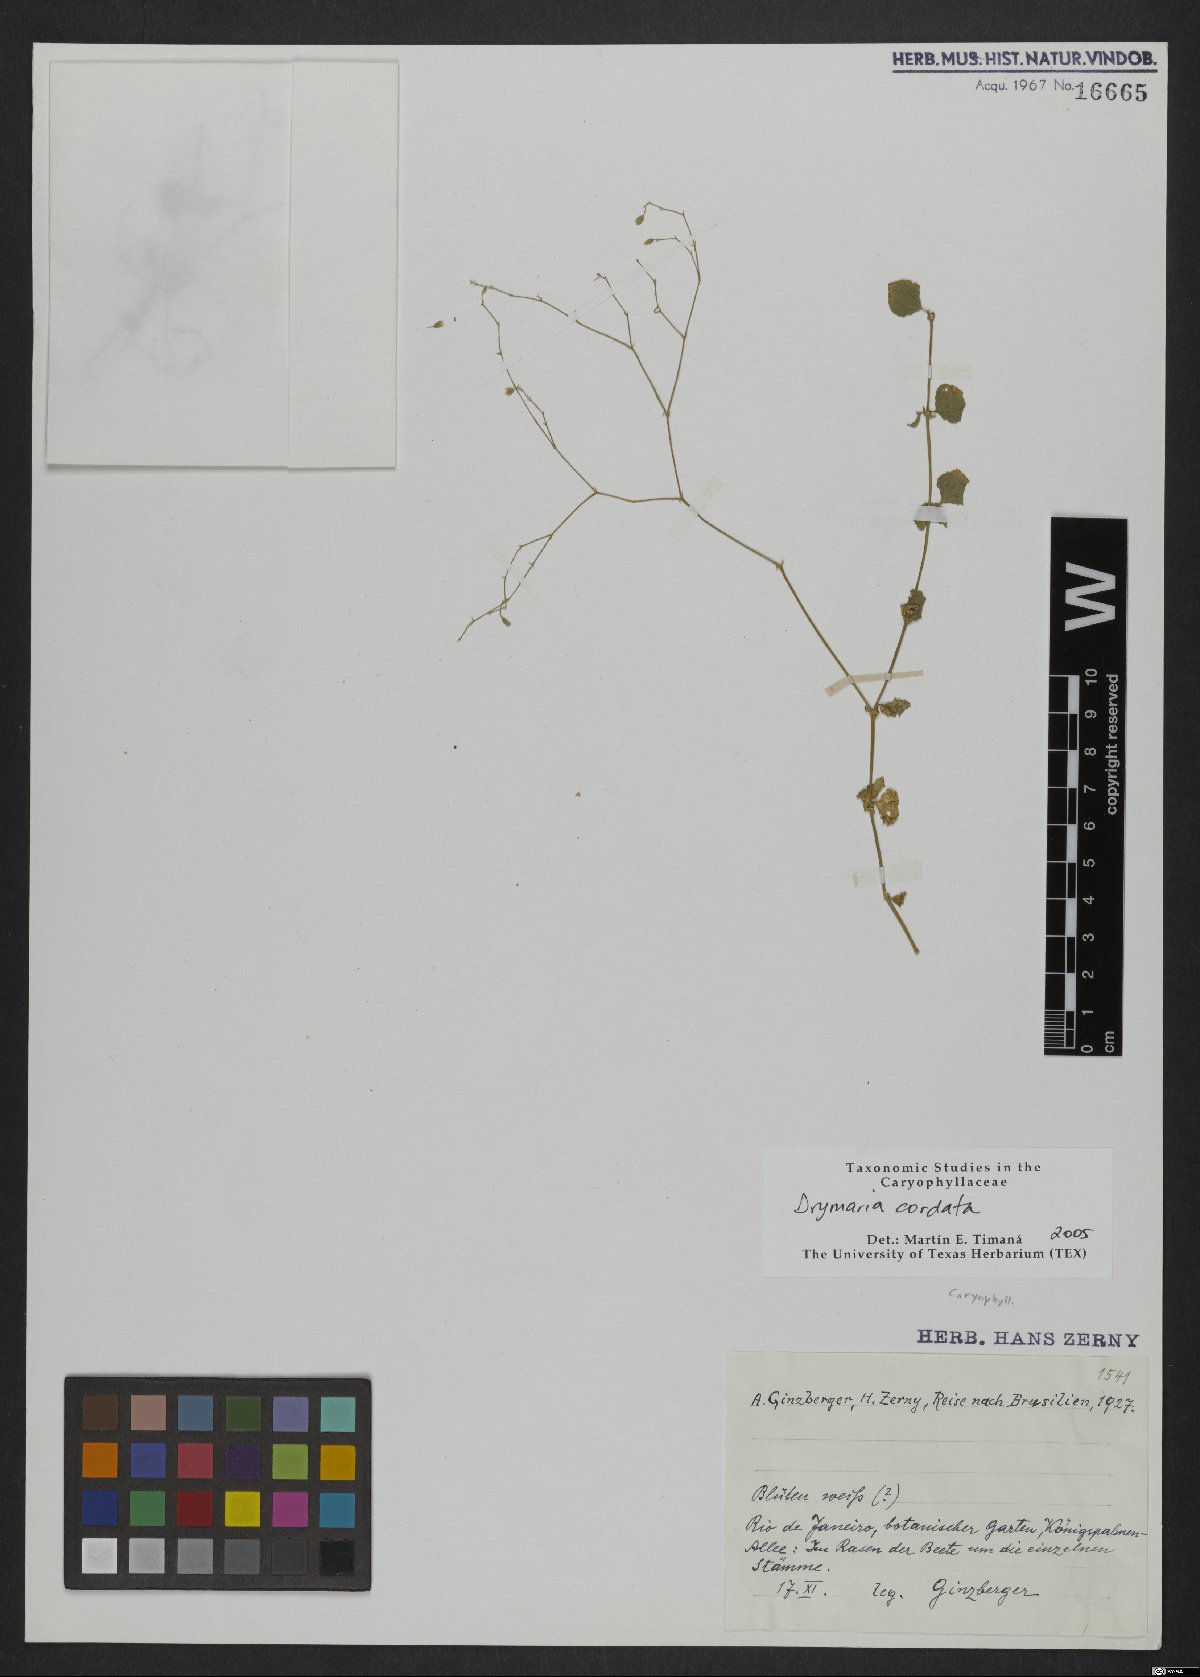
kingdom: Plantae
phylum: Tracheophyta
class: Magnoliopsida
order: Caryophyllales
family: Caryophyllaceae
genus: Drymaria
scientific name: Drymaria cordata
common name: Whitesnow
